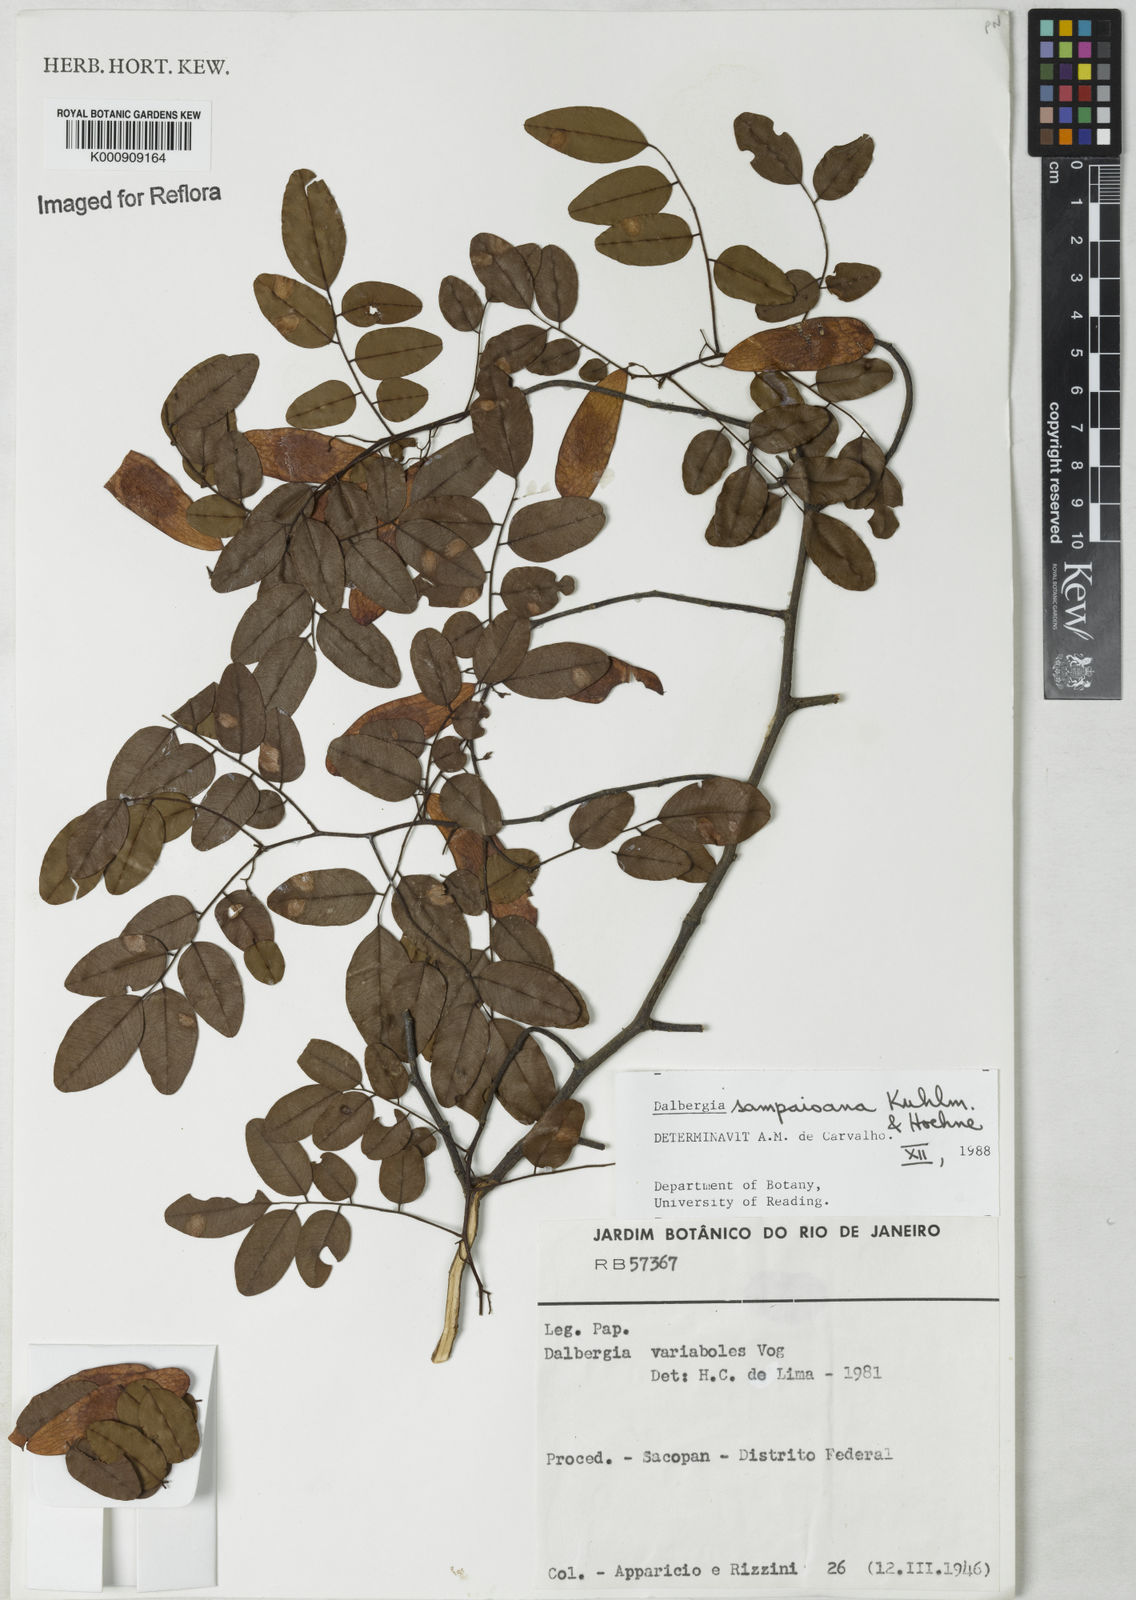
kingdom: Plantae
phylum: Tracheophyta
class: Magnoliopsida
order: Fabales
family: Fabaceae
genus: Dalbergia
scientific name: Dalbergia sampaioana
